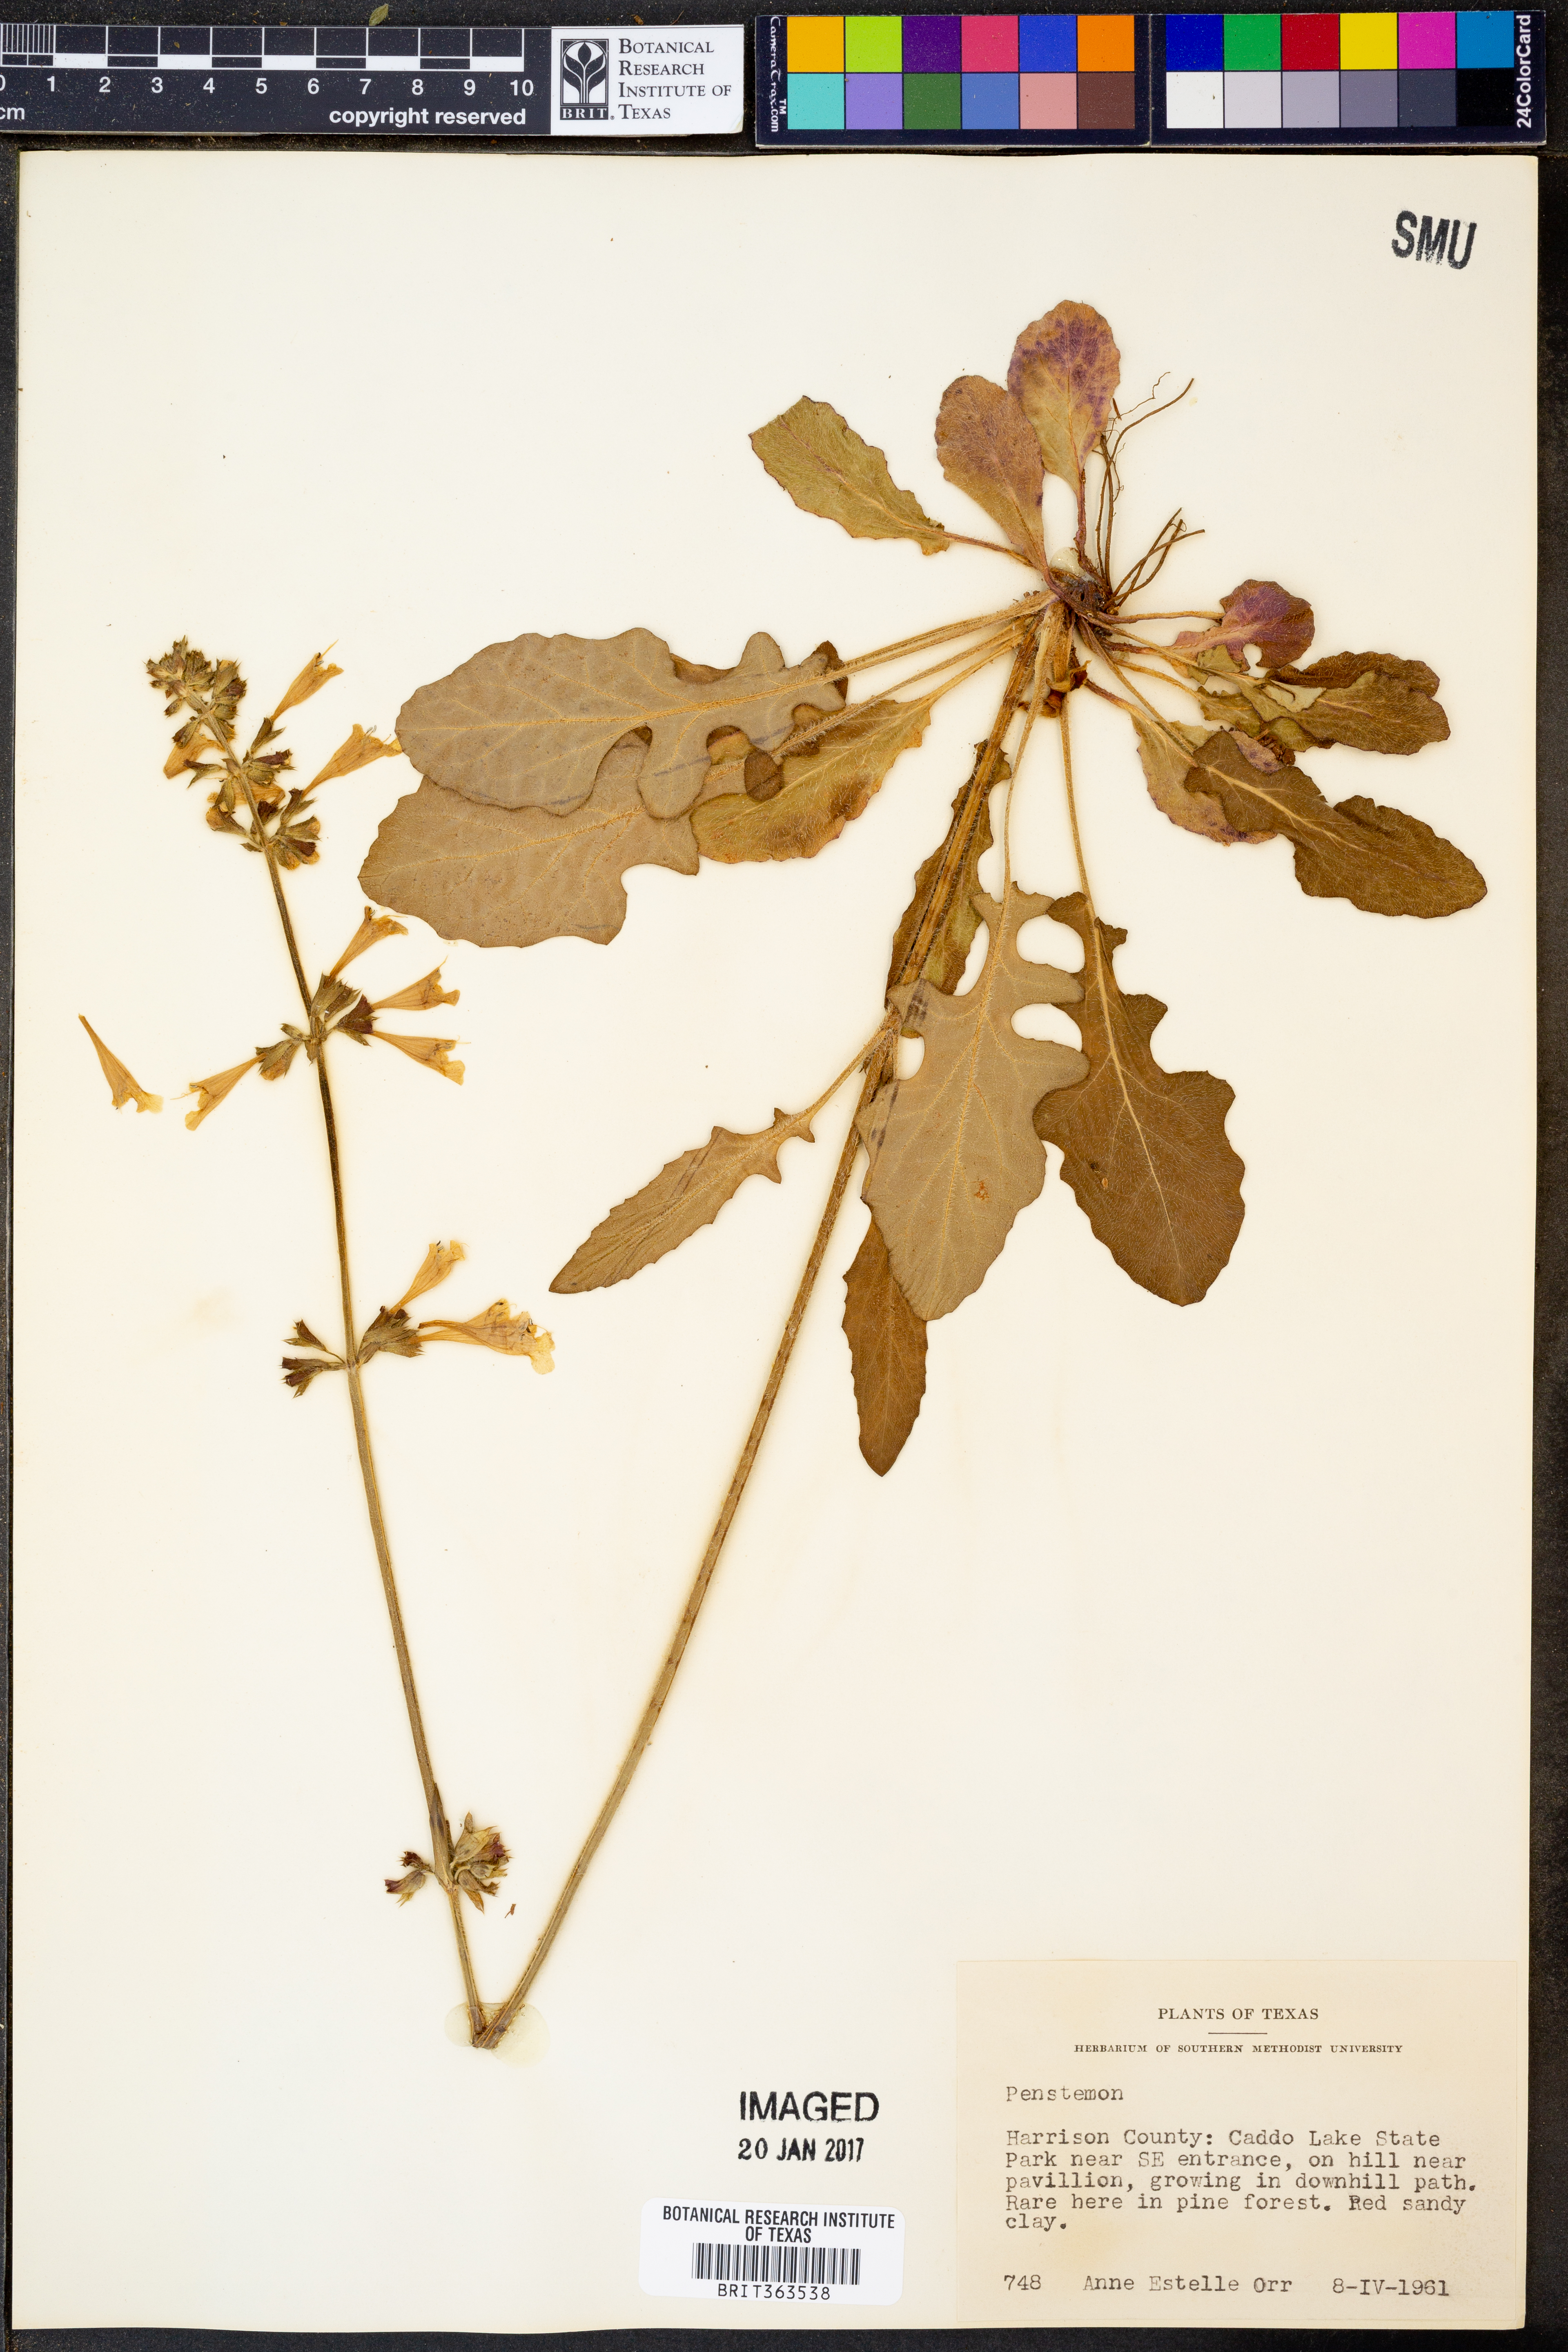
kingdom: Plantae
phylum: Tracheophyta
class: Magnoliopsida
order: Lamiales
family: Plantaginaceae
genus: Penstemon
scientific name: Penstemon
